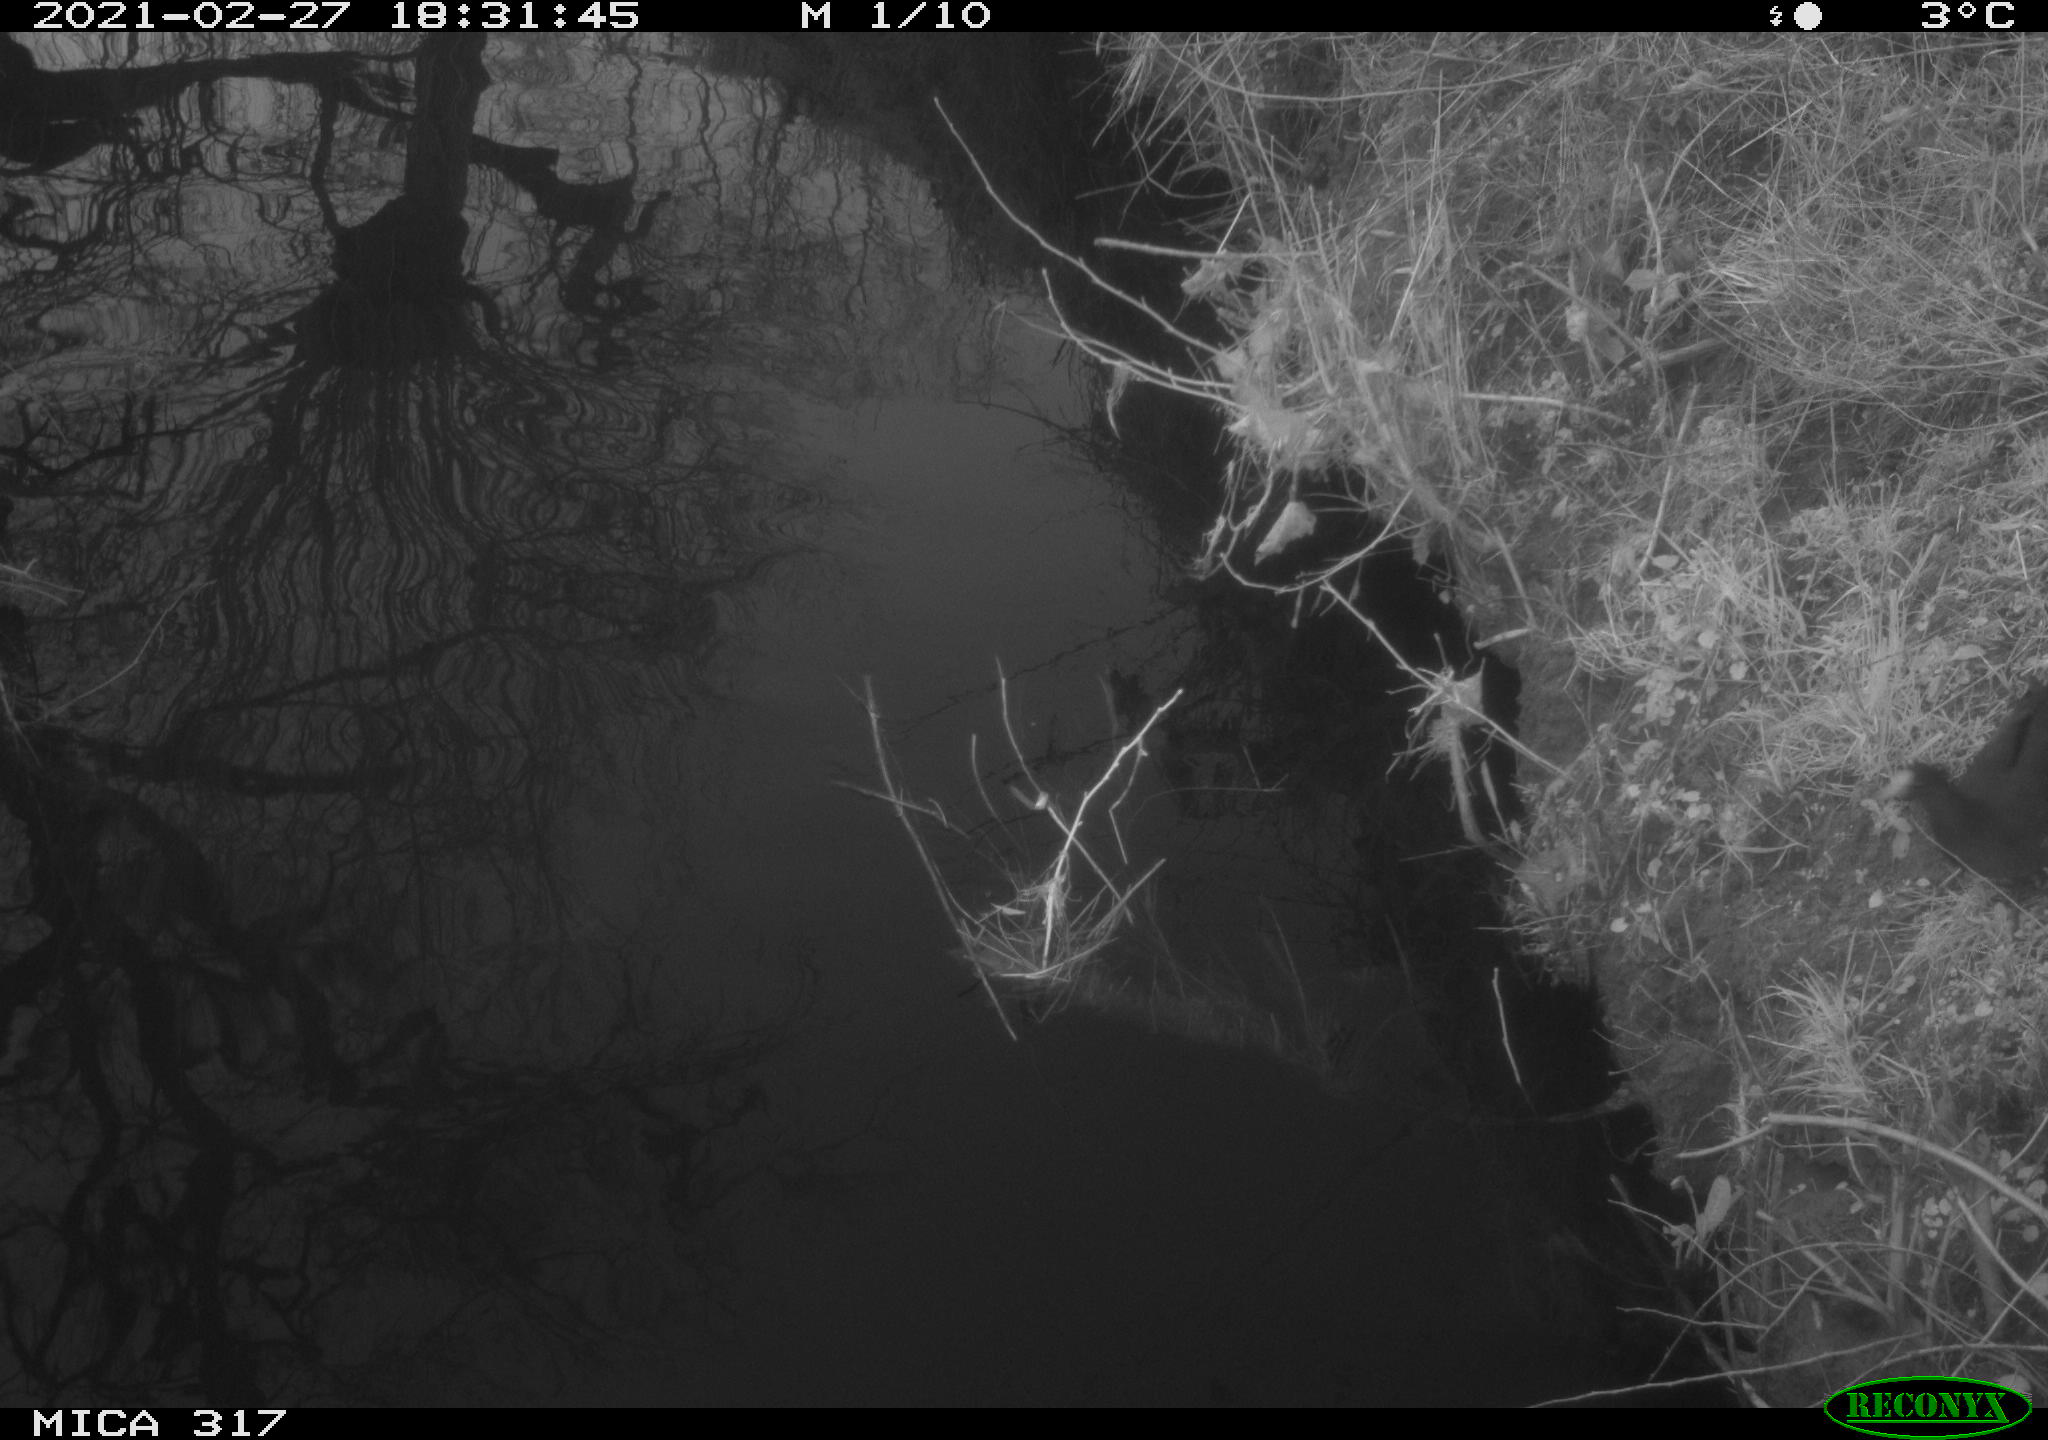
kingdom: Animalia
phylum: Chordata
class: Aves
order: Gruiformes
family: Rallidae
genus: Gallinula
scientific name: Gallinula chloropus
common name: Common moorhen
